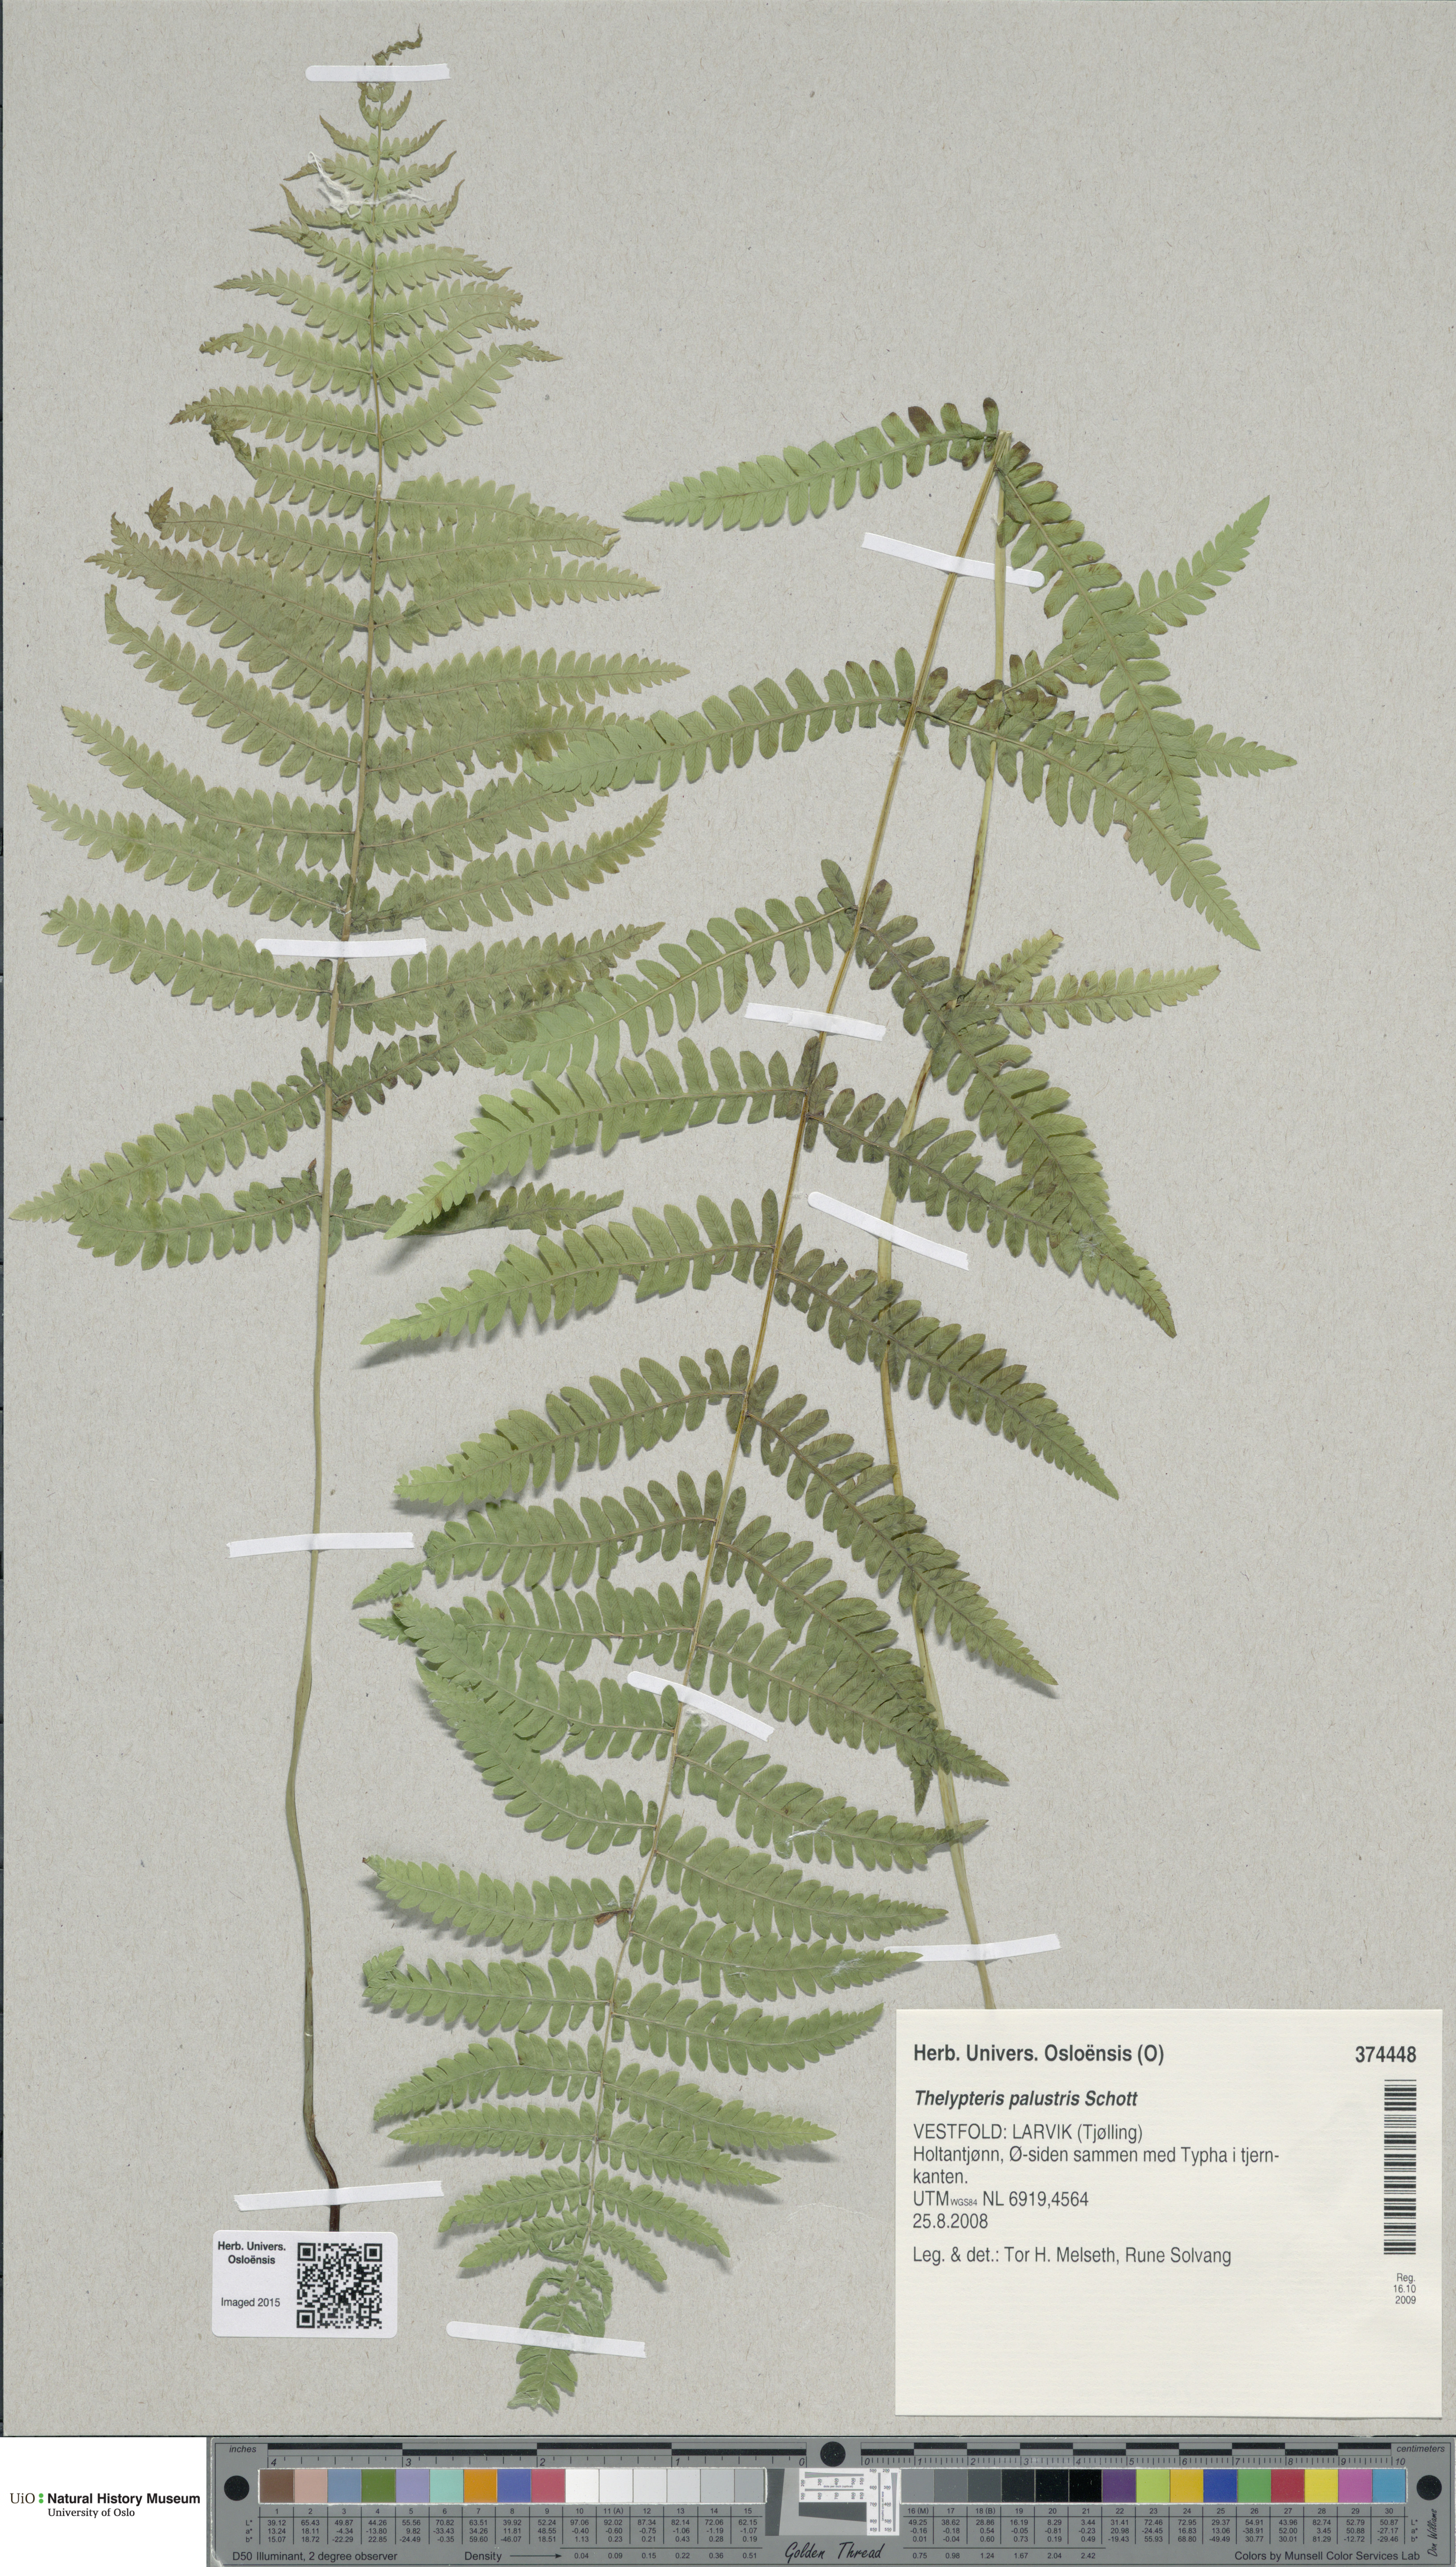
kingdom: Plantae
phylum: Tracheophyta
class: Polypodiopsida
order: Polypodiales
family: Thelypteridaceae
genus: Thelypteris
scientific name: Thelypteris palustris
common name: Marsh fern
